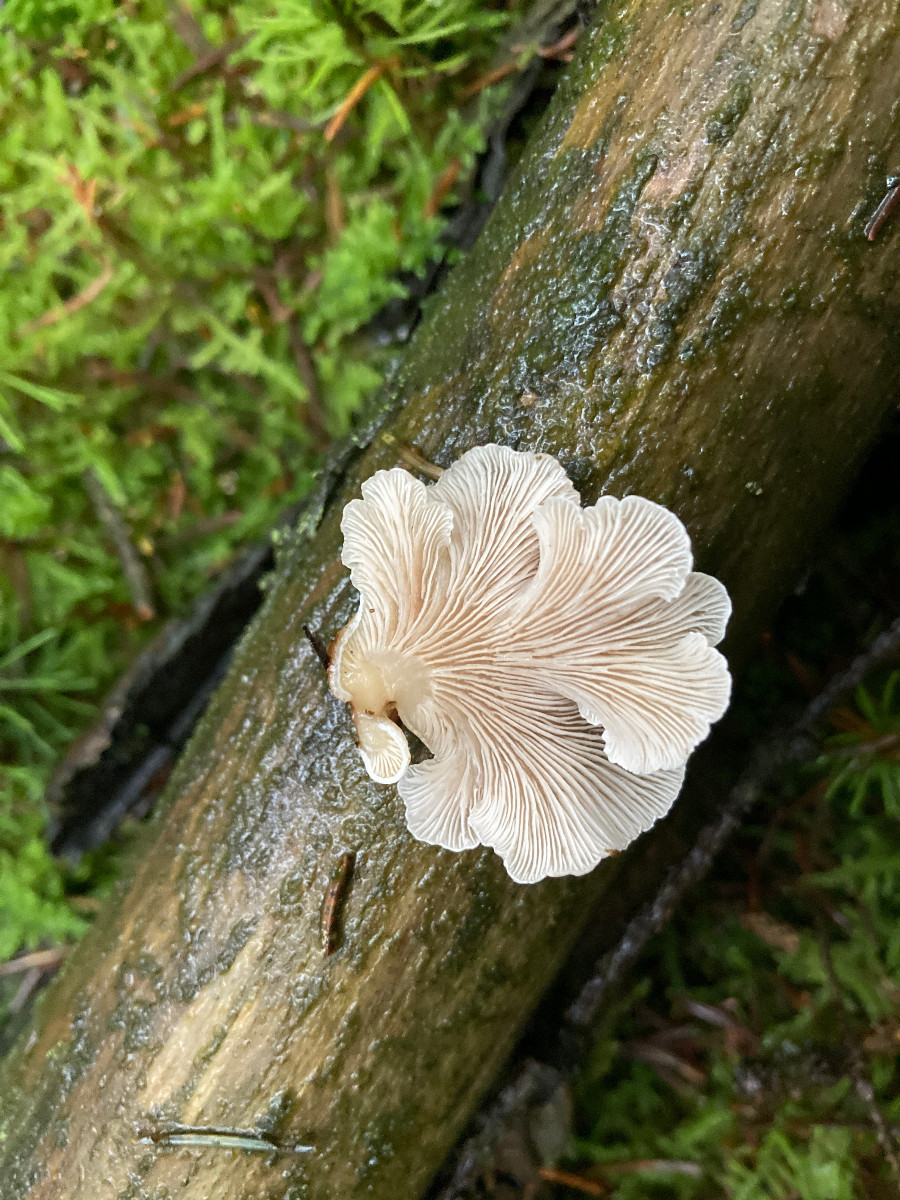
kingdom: Fungi
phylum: Basidiomycota
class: Agaricomycetes
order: Agaricales
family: Mycenaceae
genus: Panellus
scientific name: Panellus mitis
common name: mild epaulethat
